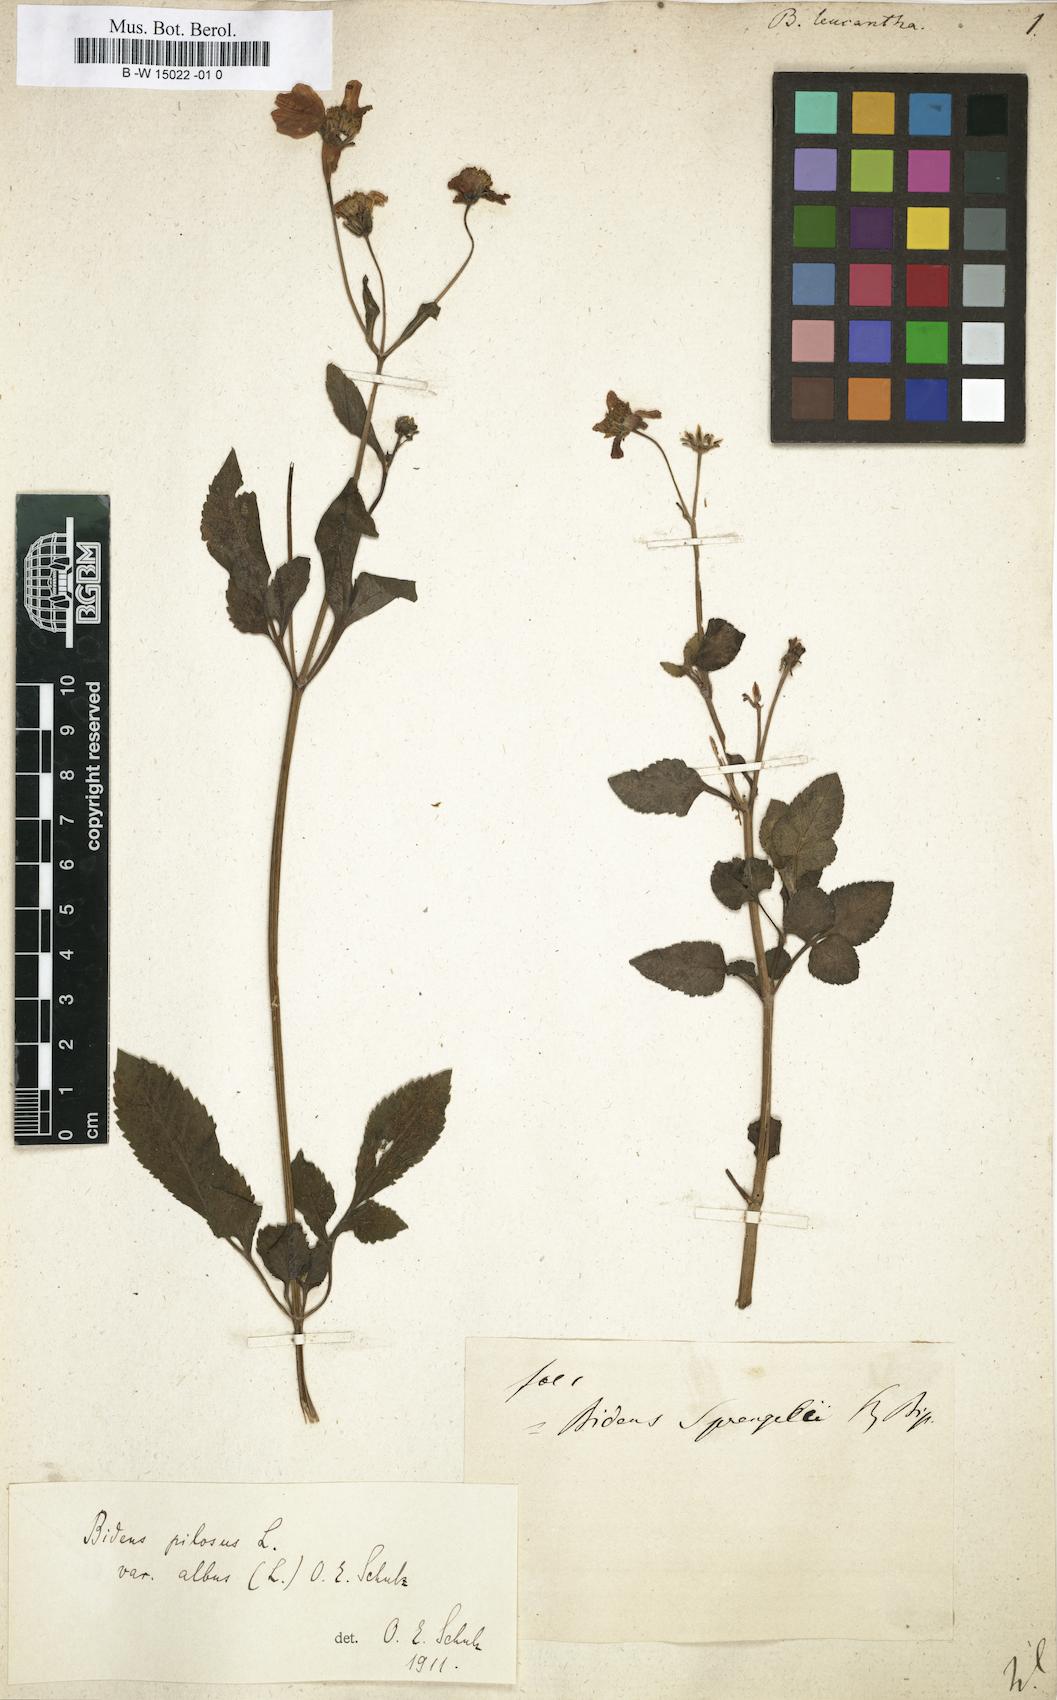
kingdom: Plantae
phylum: Tracheophyta
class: Magnoliopsida
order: Asterales
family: Asteraceae
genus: Bidens
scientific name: Bidens pilosa
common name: Black-jack
